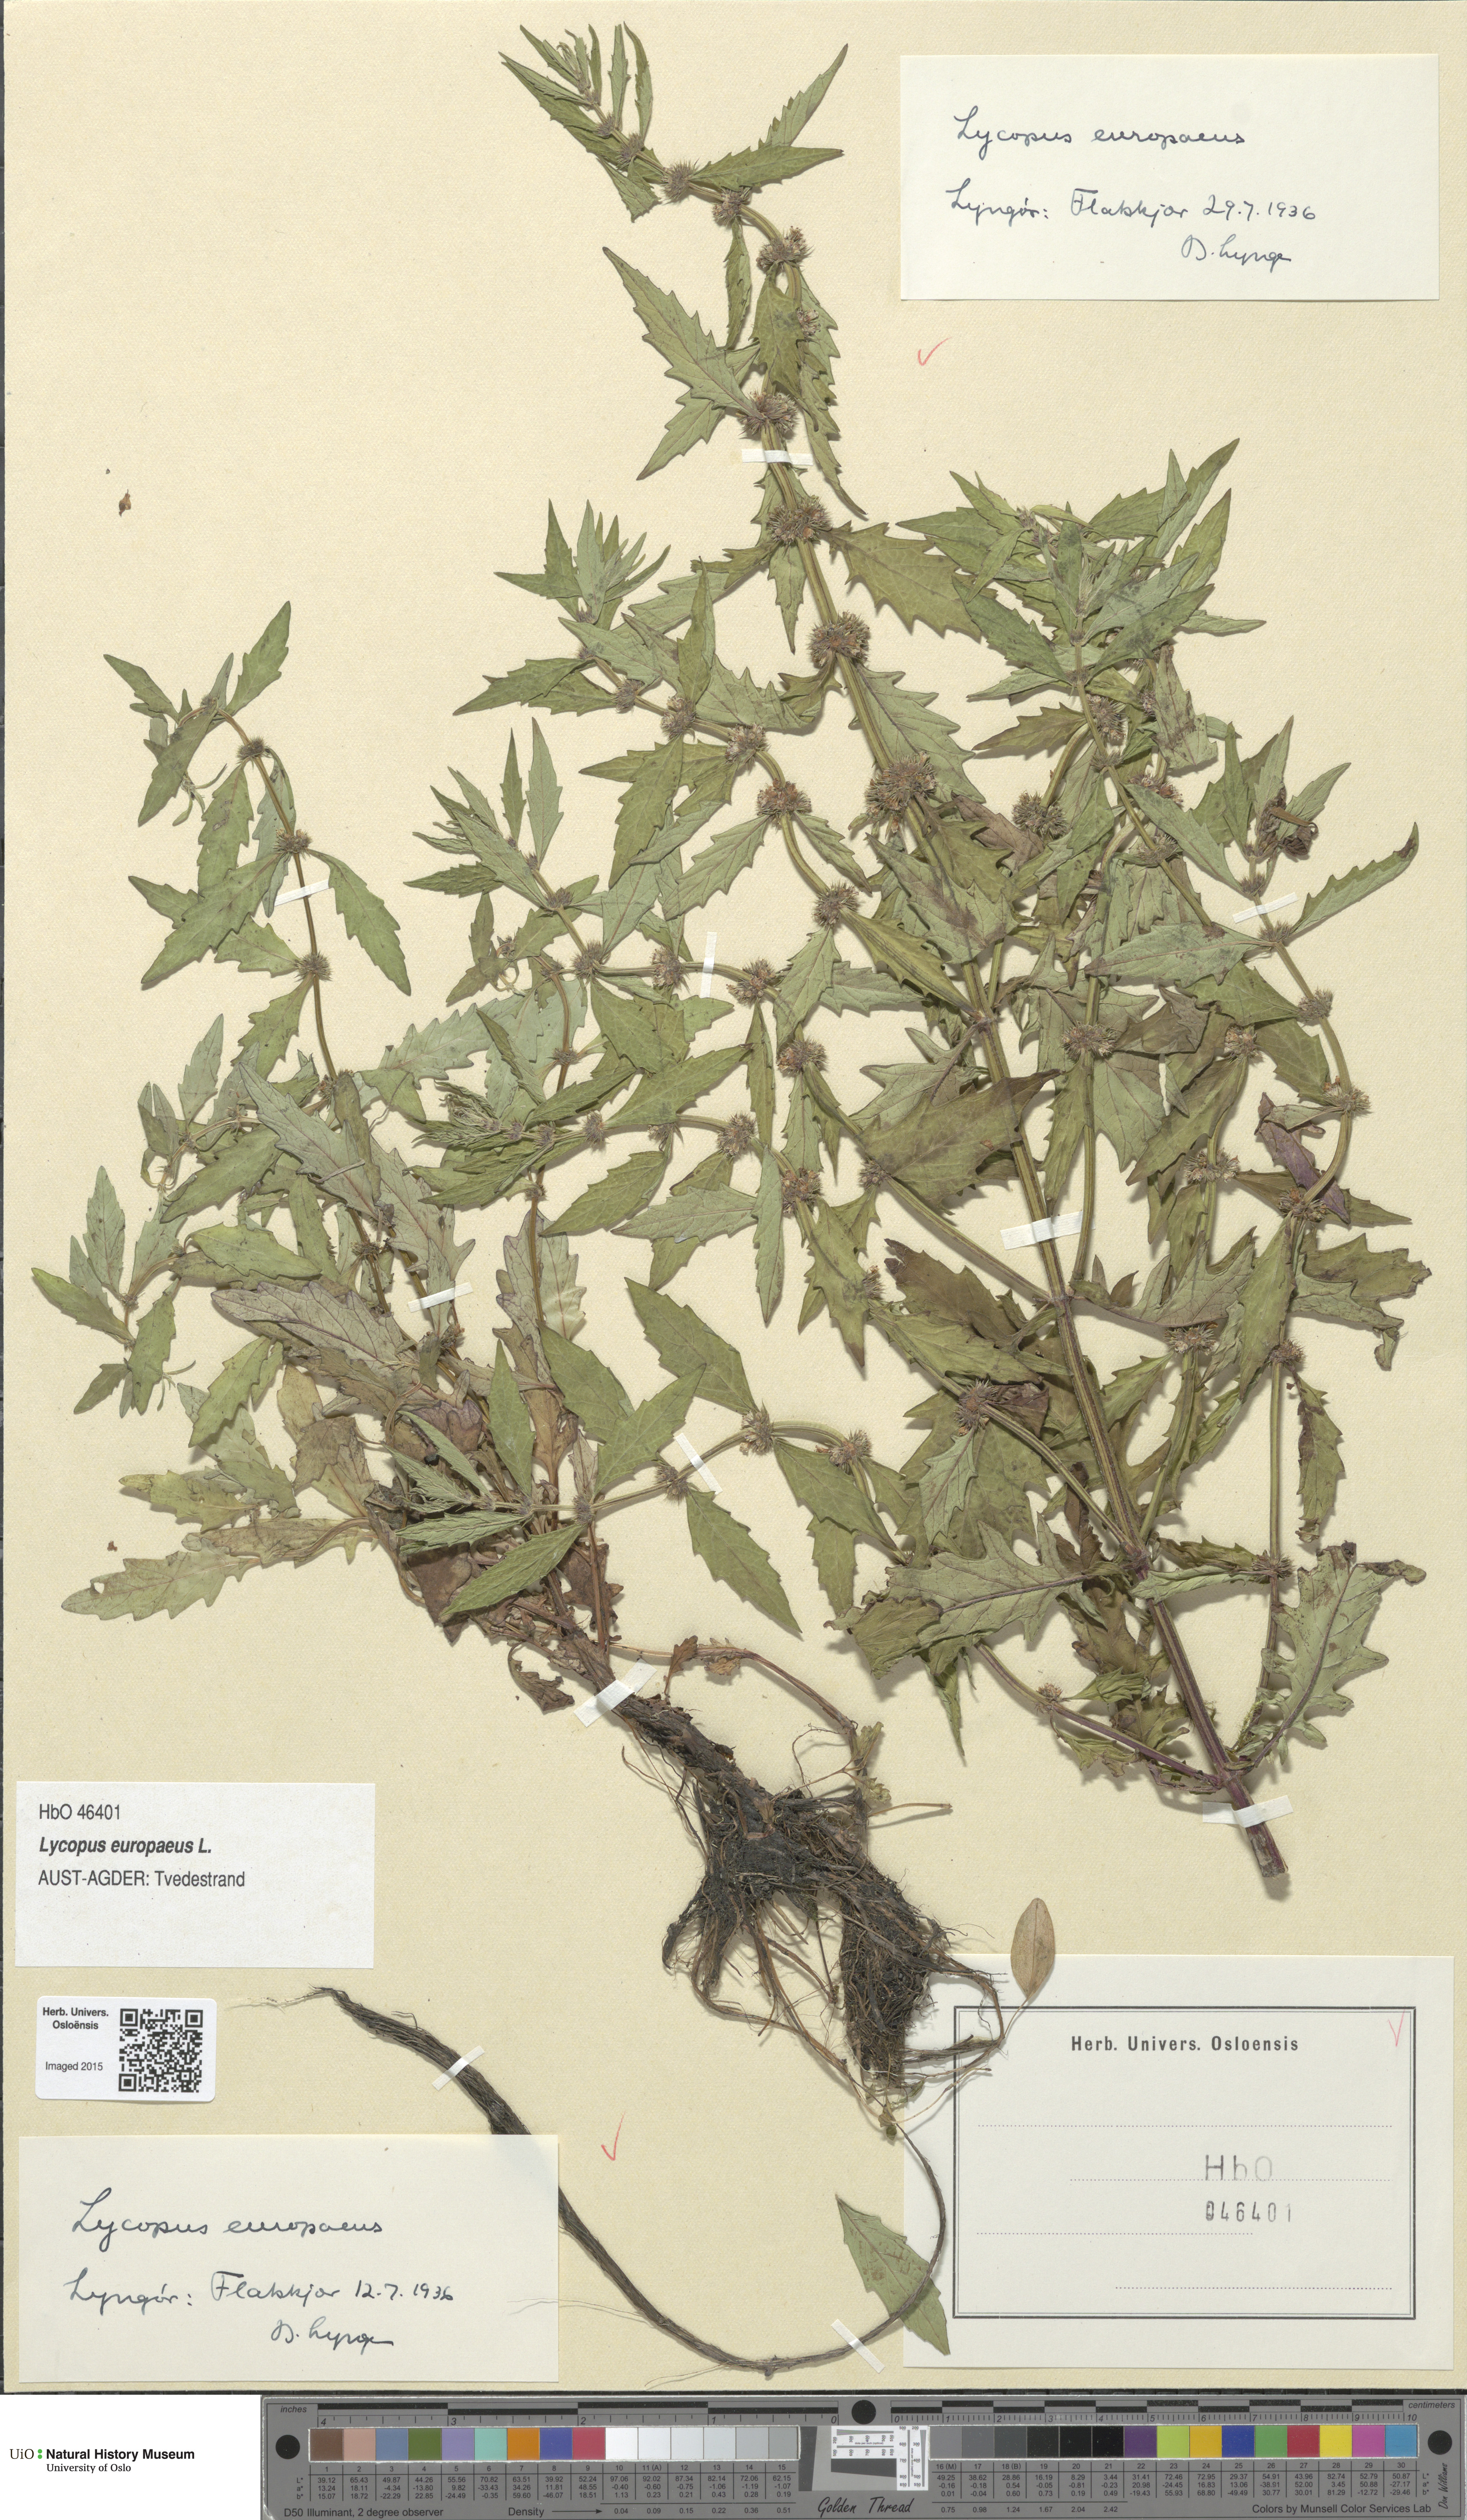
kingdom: Plantae
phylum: Tracheophyta
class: Magnoliopsida
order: Lamiales
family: Lamiaceae
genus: Lycopus
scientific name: Lycopus europaeus
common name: European bugleweed
